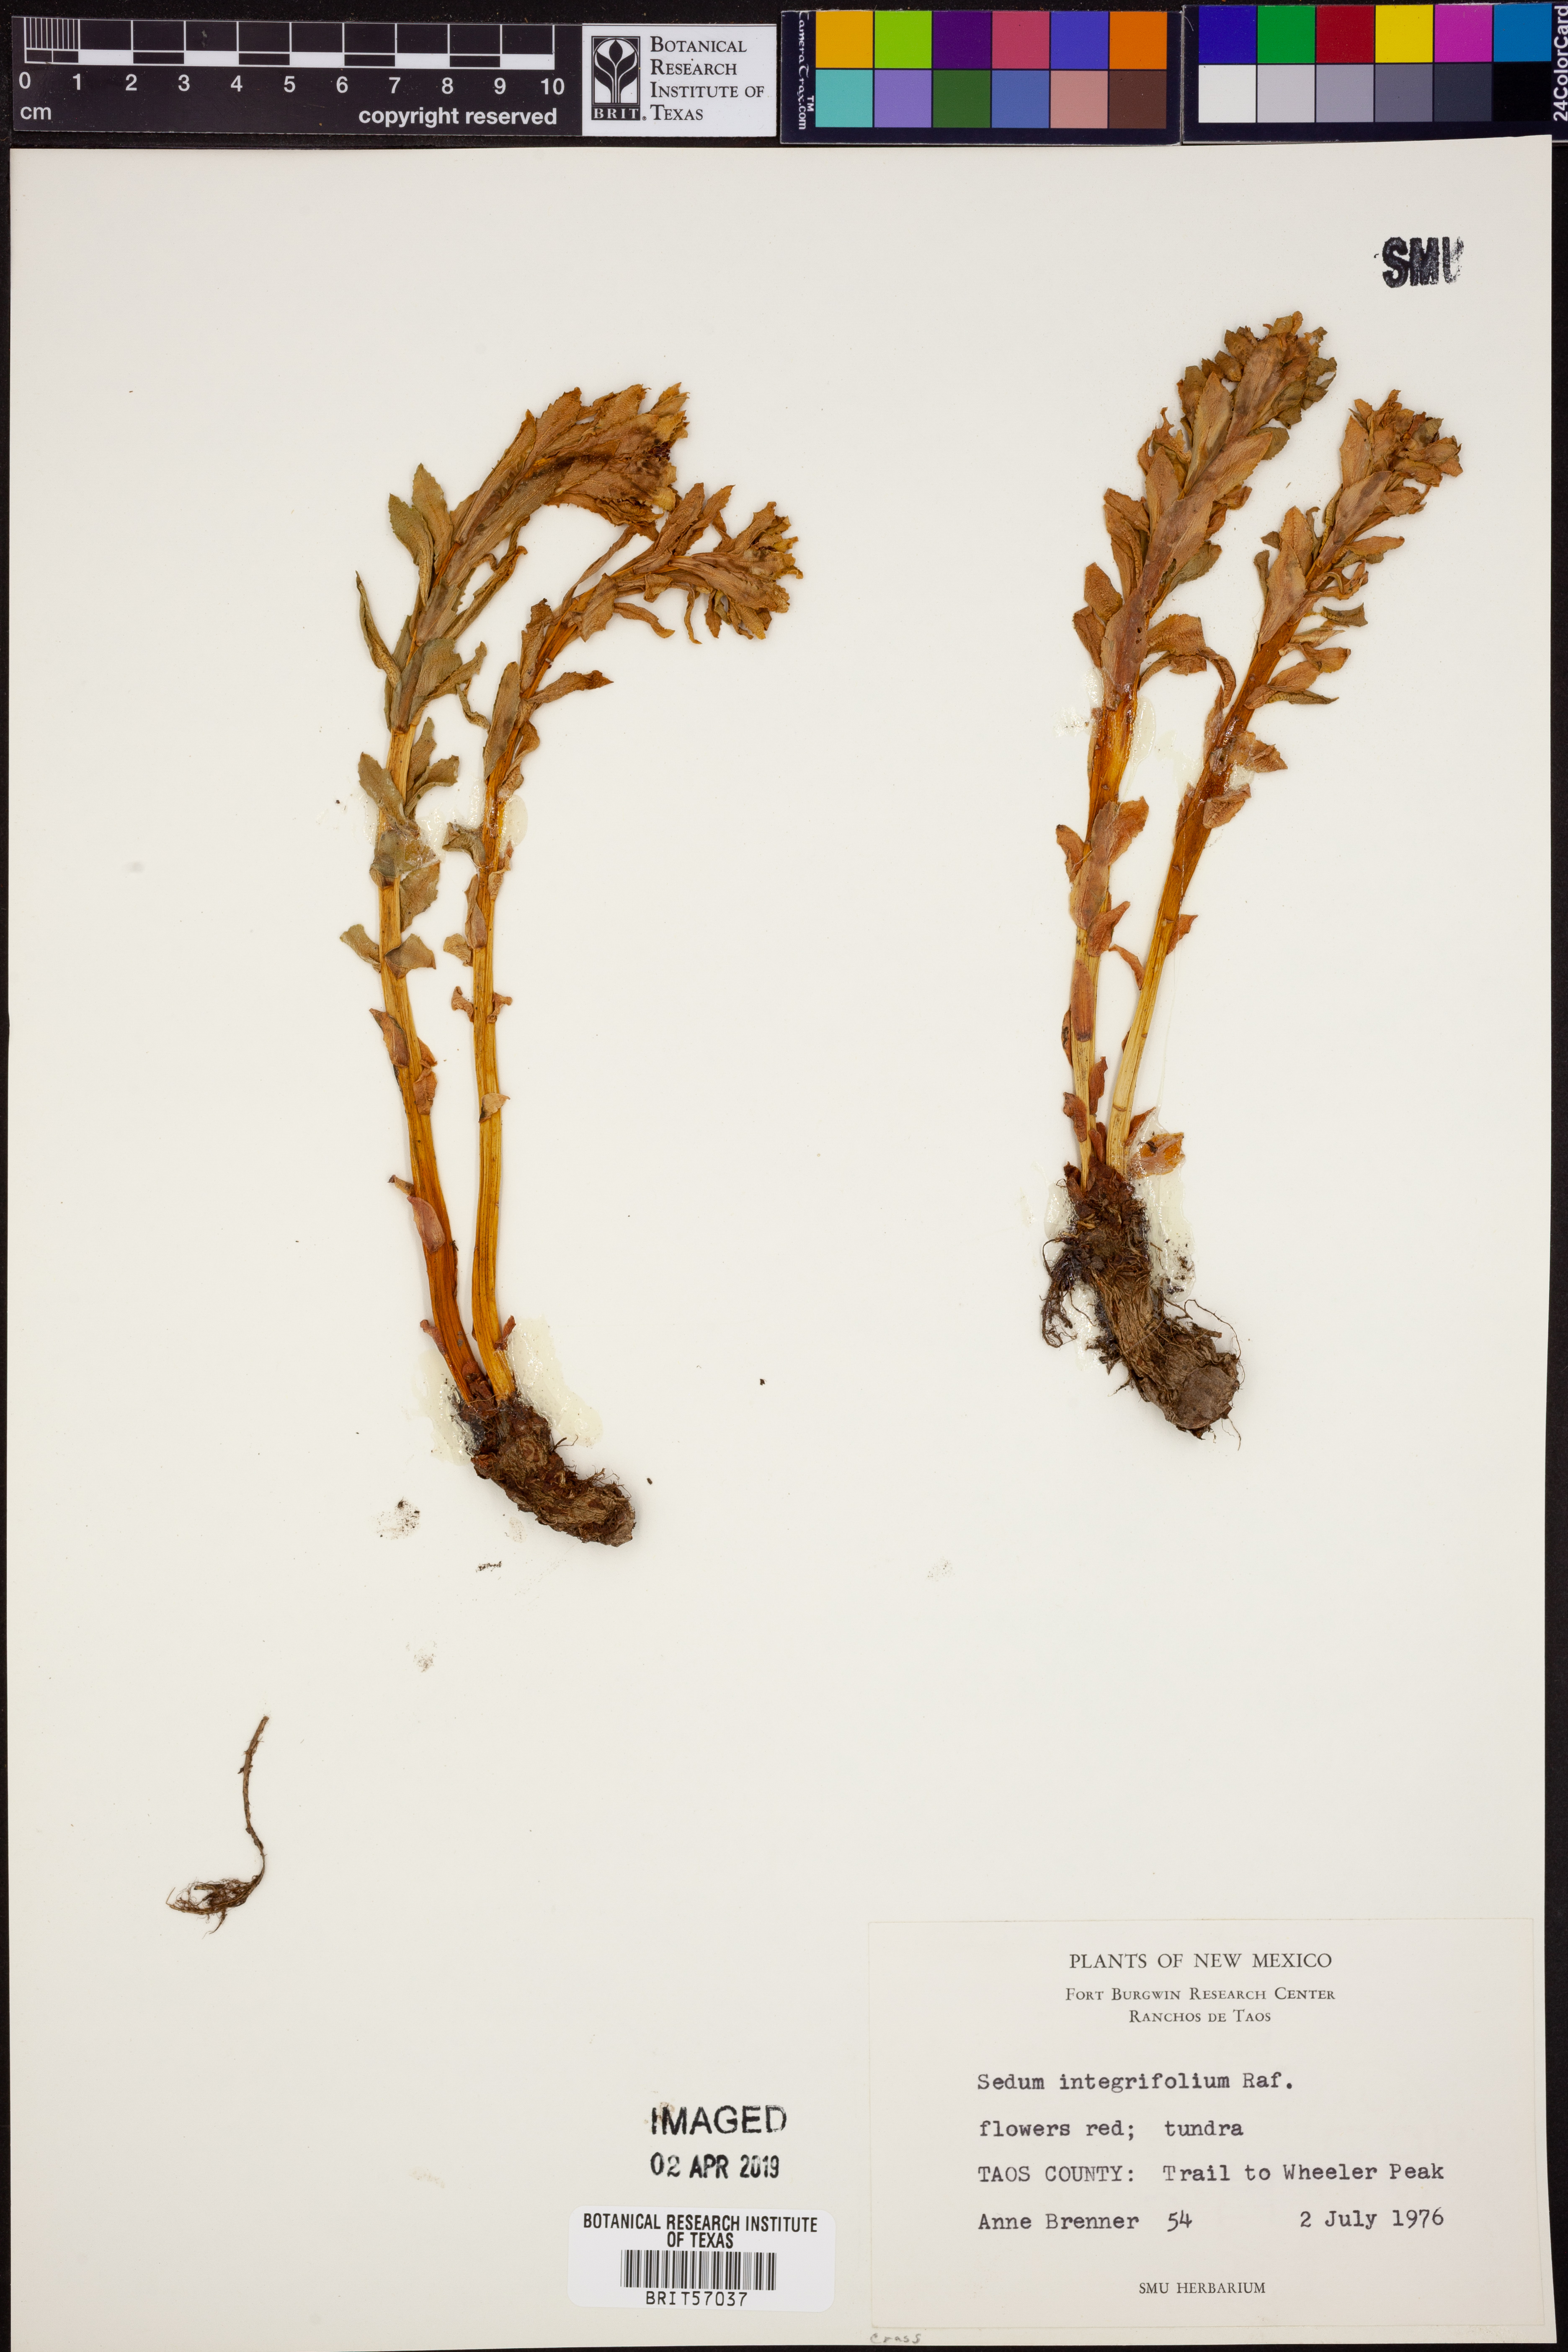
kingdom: Plantae
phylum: Tracheophyta
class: Magnoliopsida
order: Saxifragales
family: Crassulaceae
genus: Rhodiola
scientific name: Rhodiola integrifolia
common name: Western roseroot
